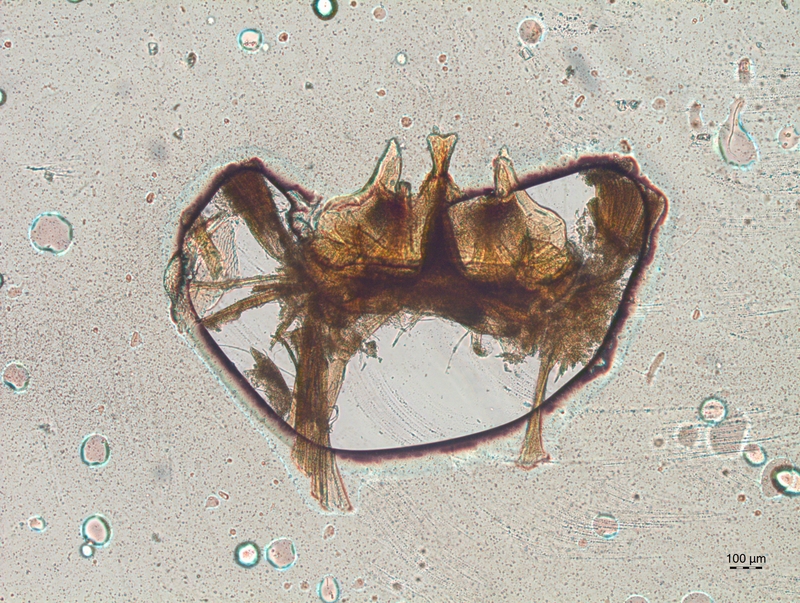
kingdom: Animalia
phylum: Arthropoda
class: Diplopoda
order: Chordeumatida
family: Craspedosomatidae
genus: Craspedosoma
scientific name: Craspedosoma rawlinsii
